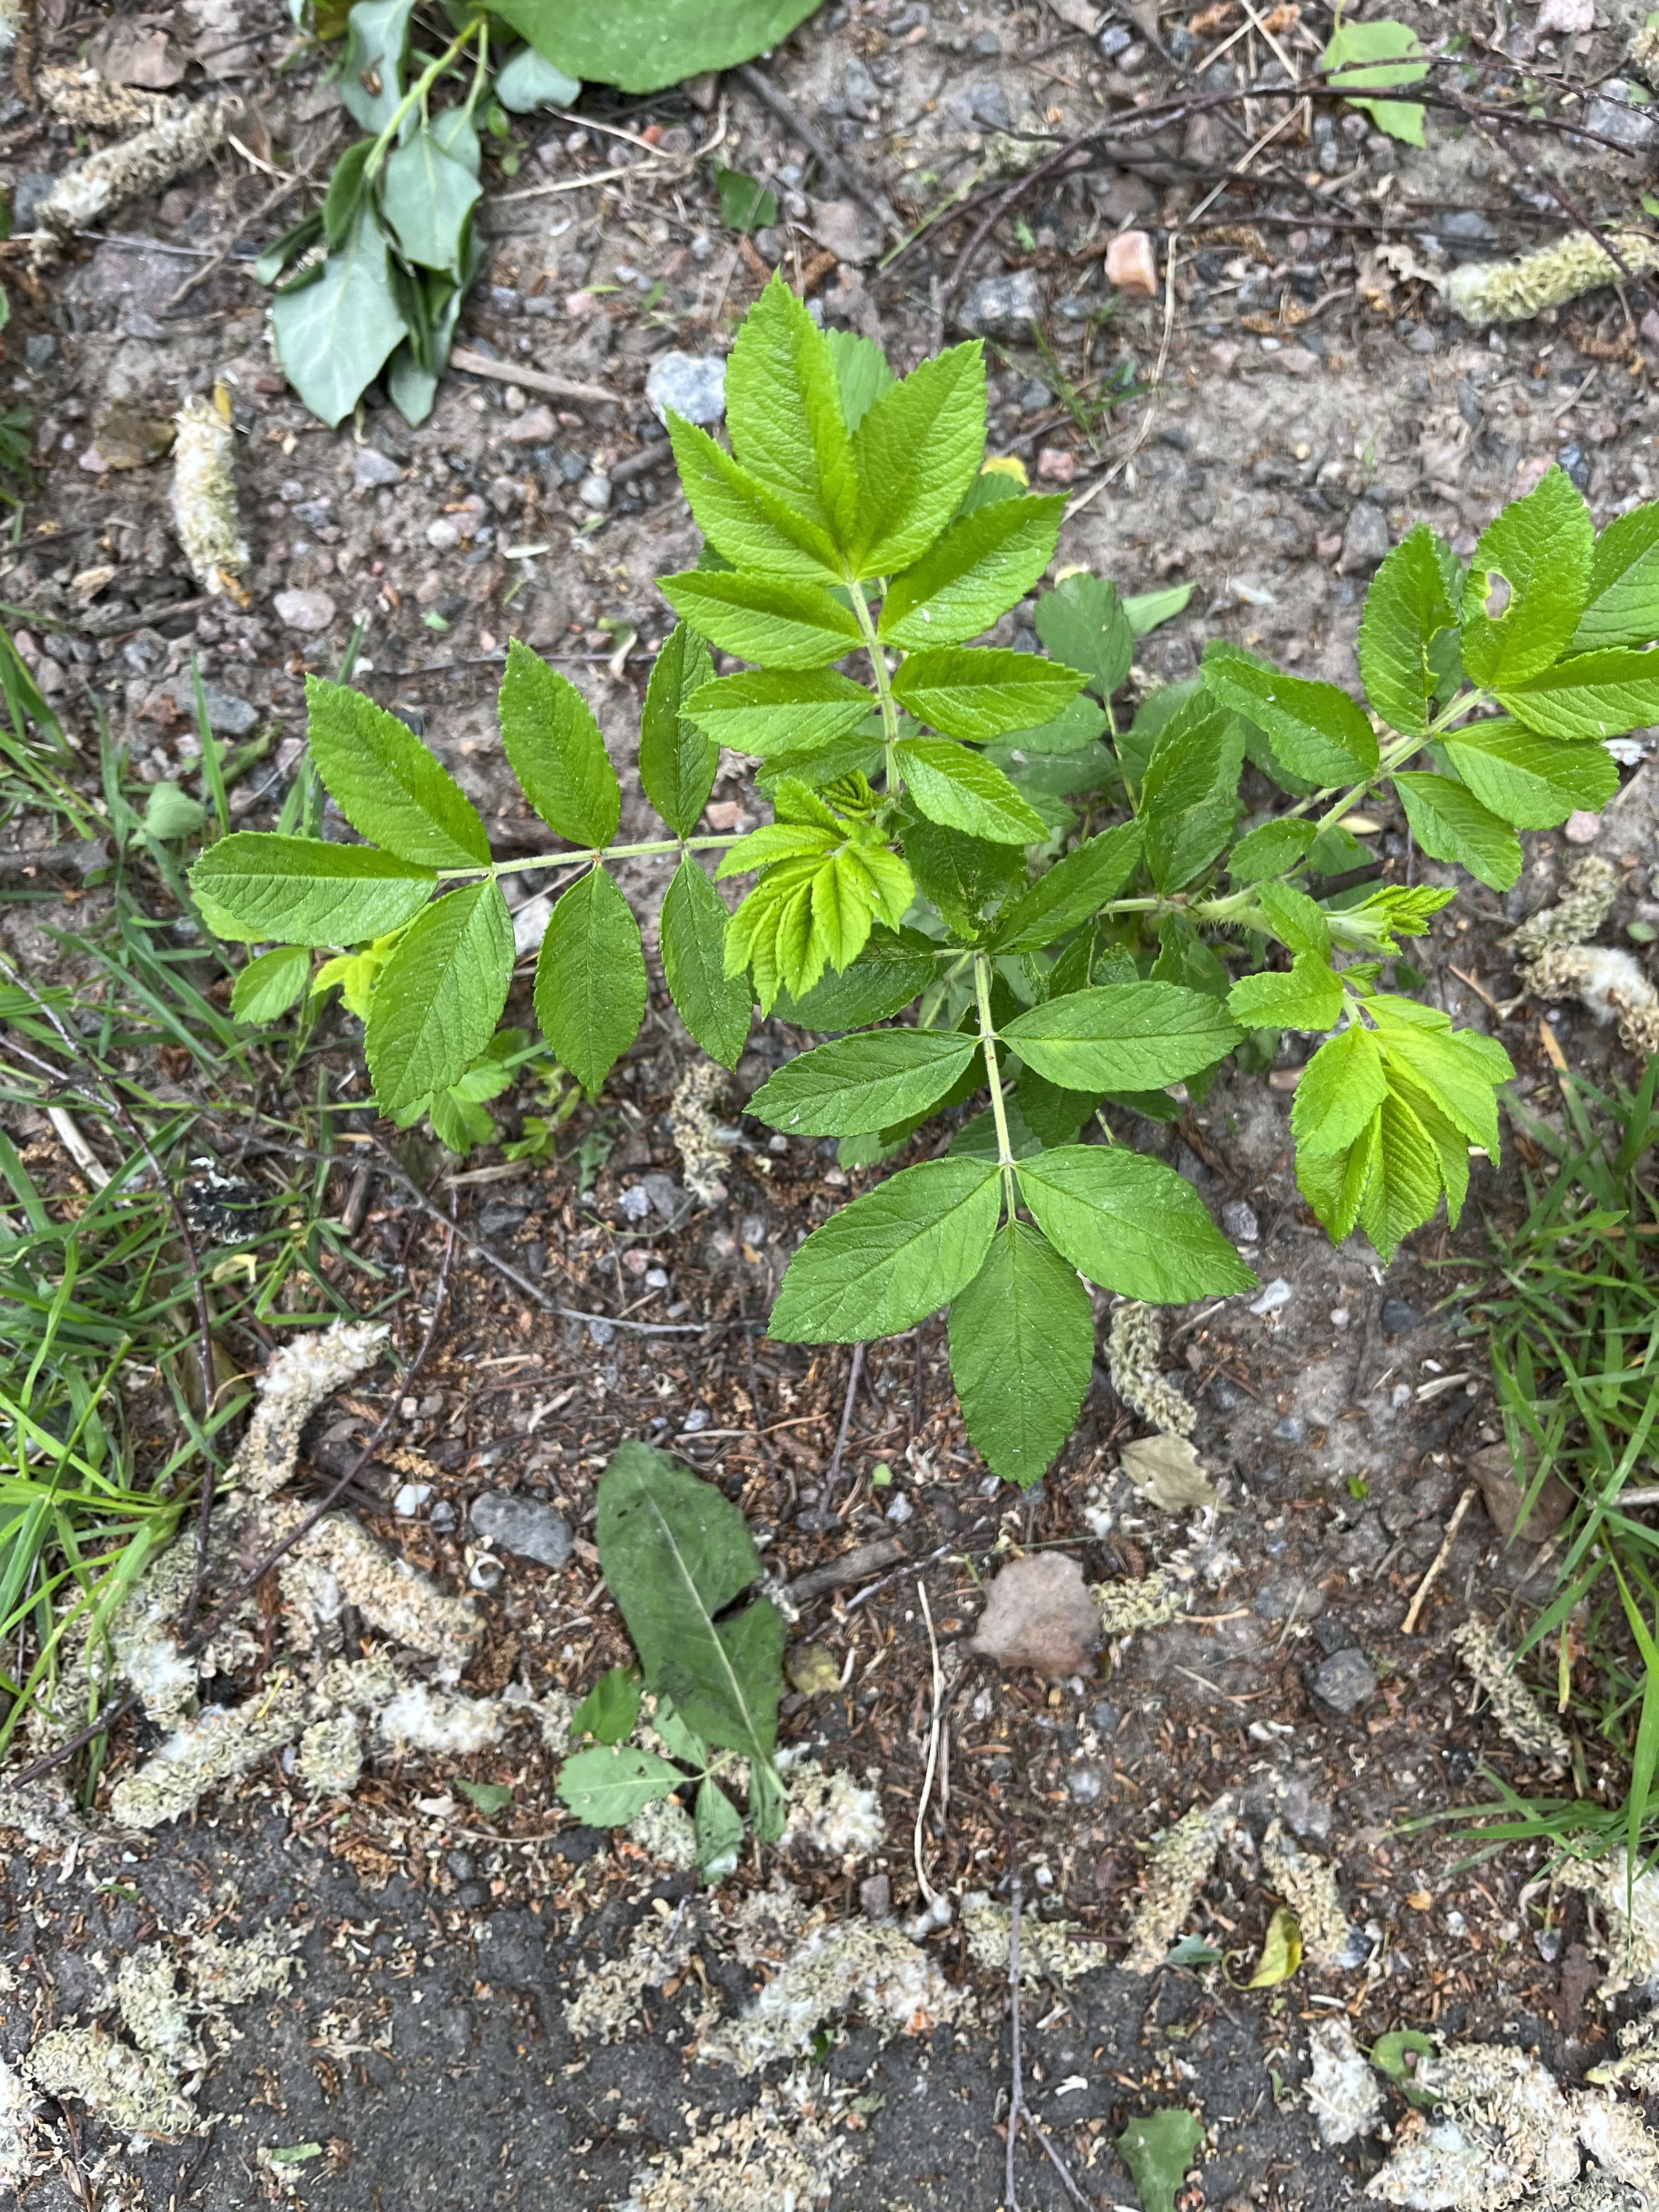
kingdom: Plantae
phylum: Tracheophyta
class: Magnoliopsida
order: Rosales
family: Rosaceae
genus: Rosa
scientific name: Rosa rugosa
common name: Japanese rose
